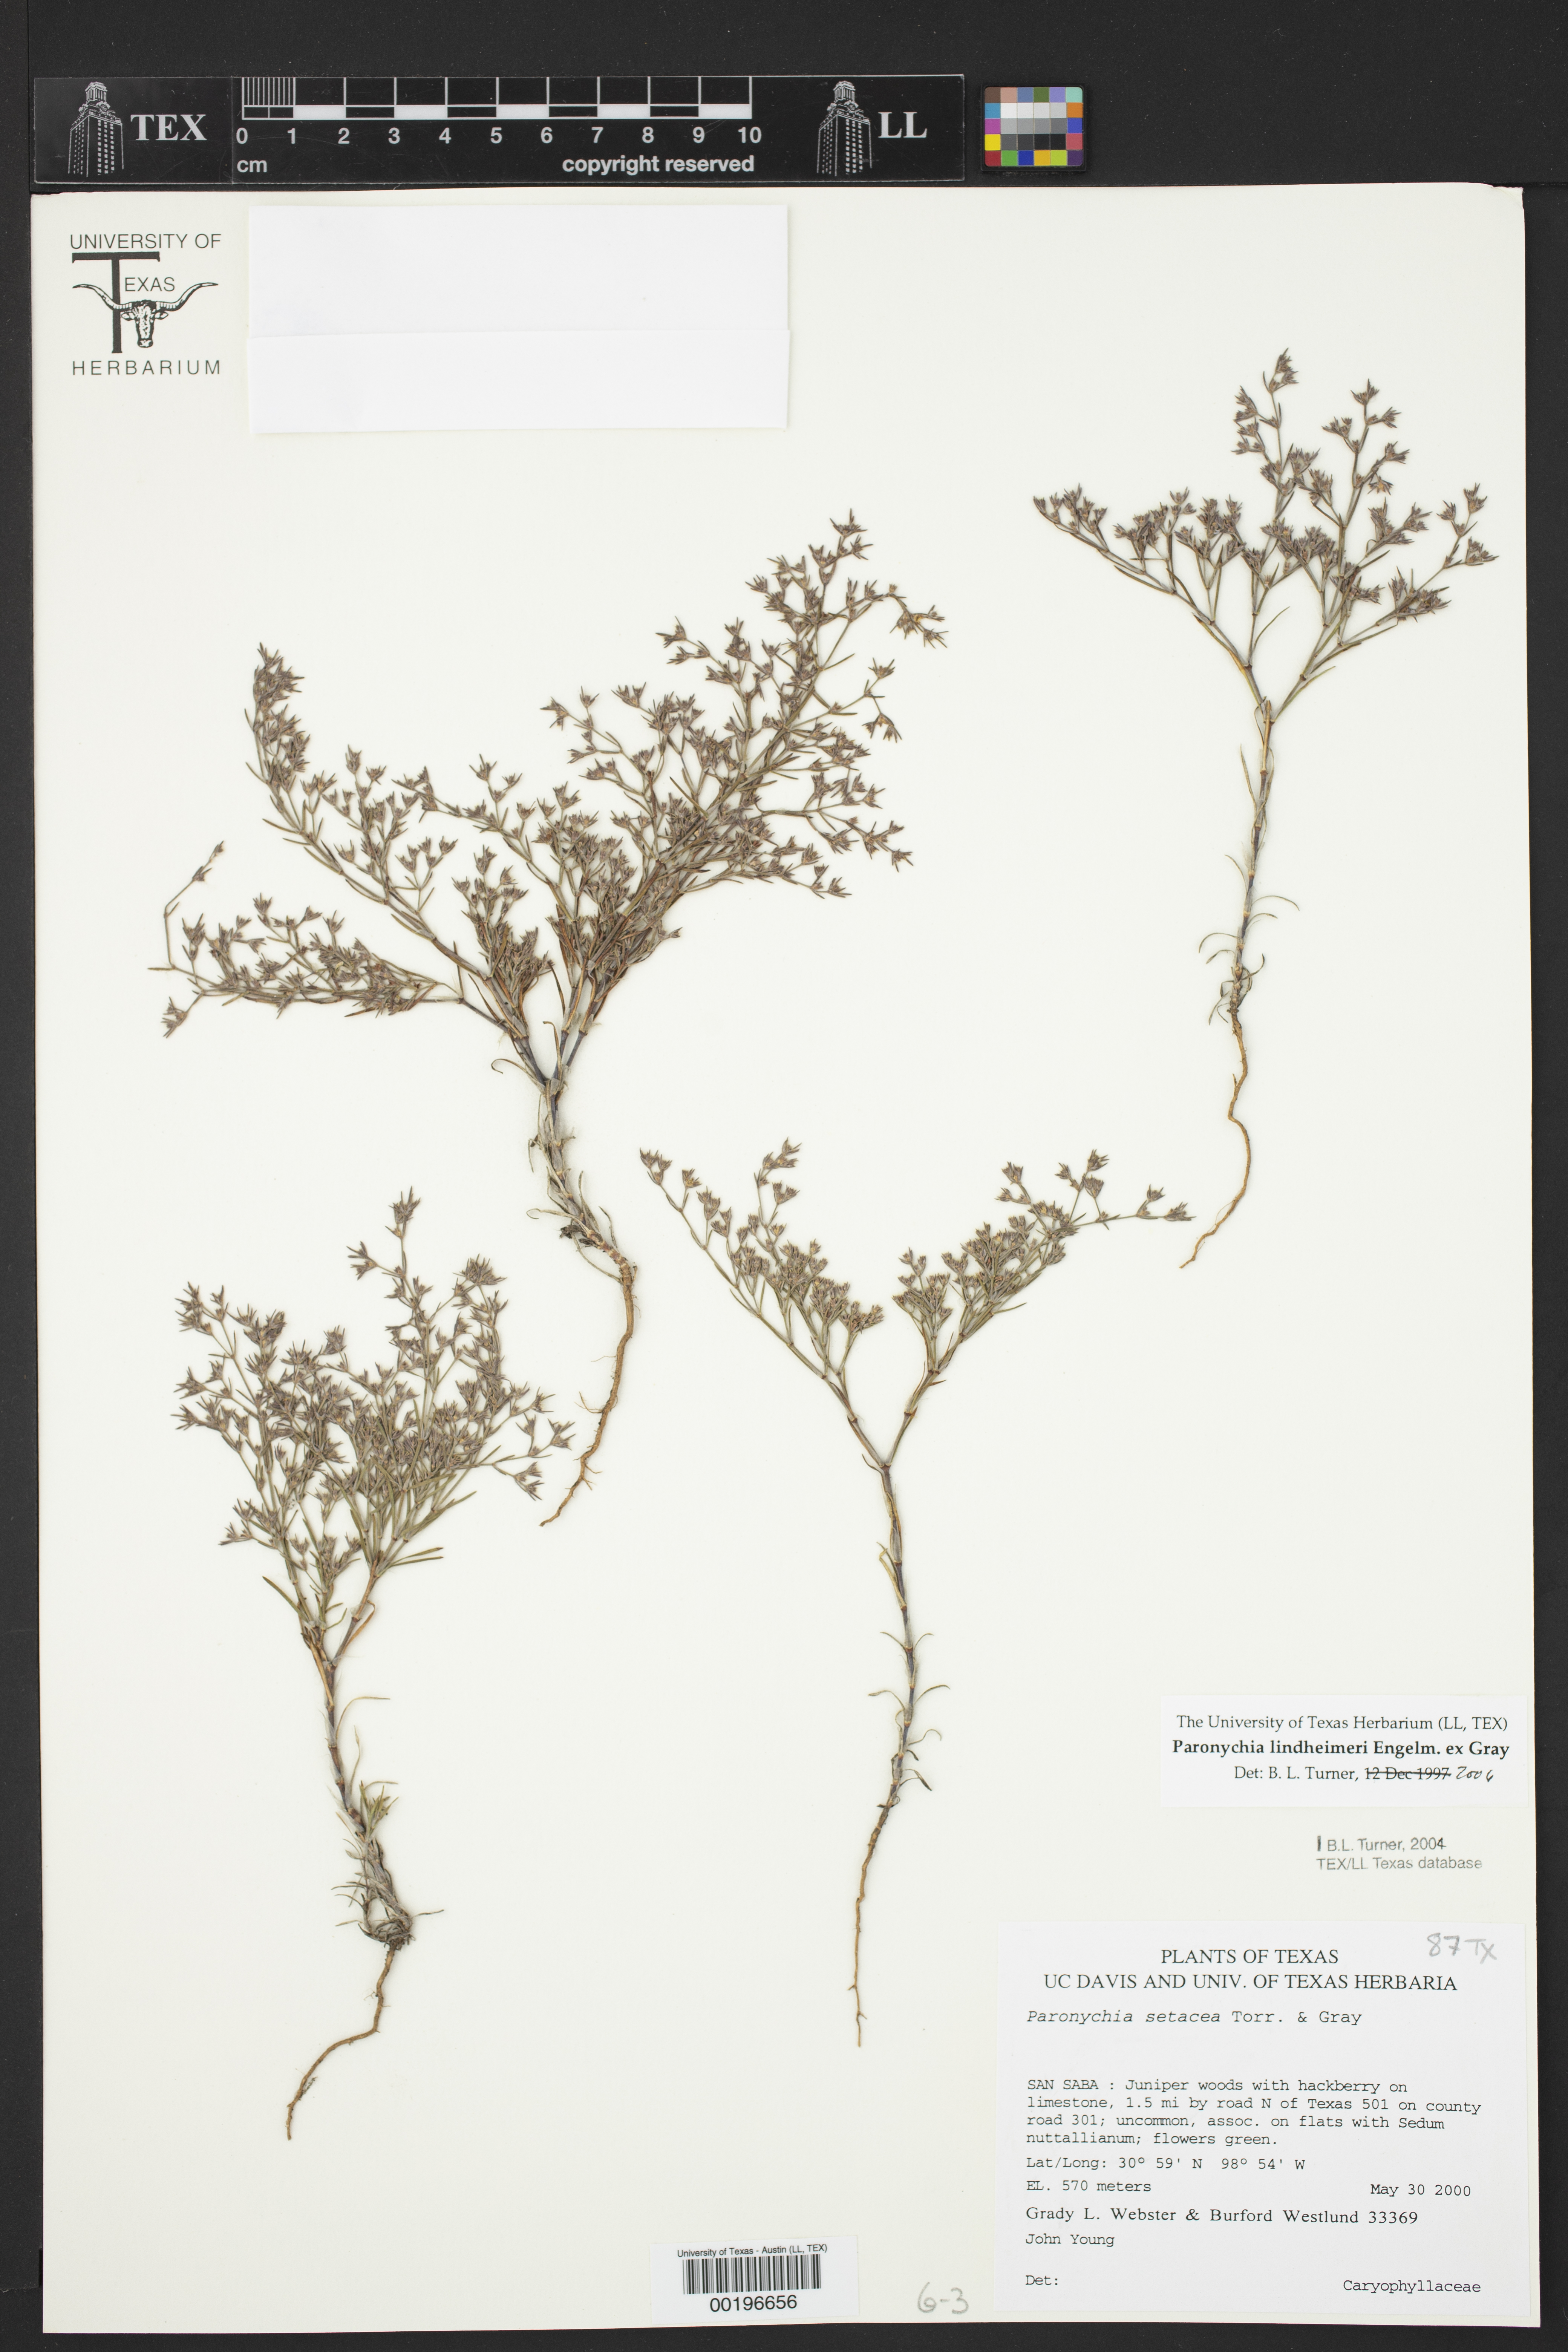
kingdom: Plantae
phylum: Tracheophyta
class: Magnoliopsida
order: Caryophyllales
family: Caryophyllaceae
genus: Paronychia
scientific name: Paronychia setacea
